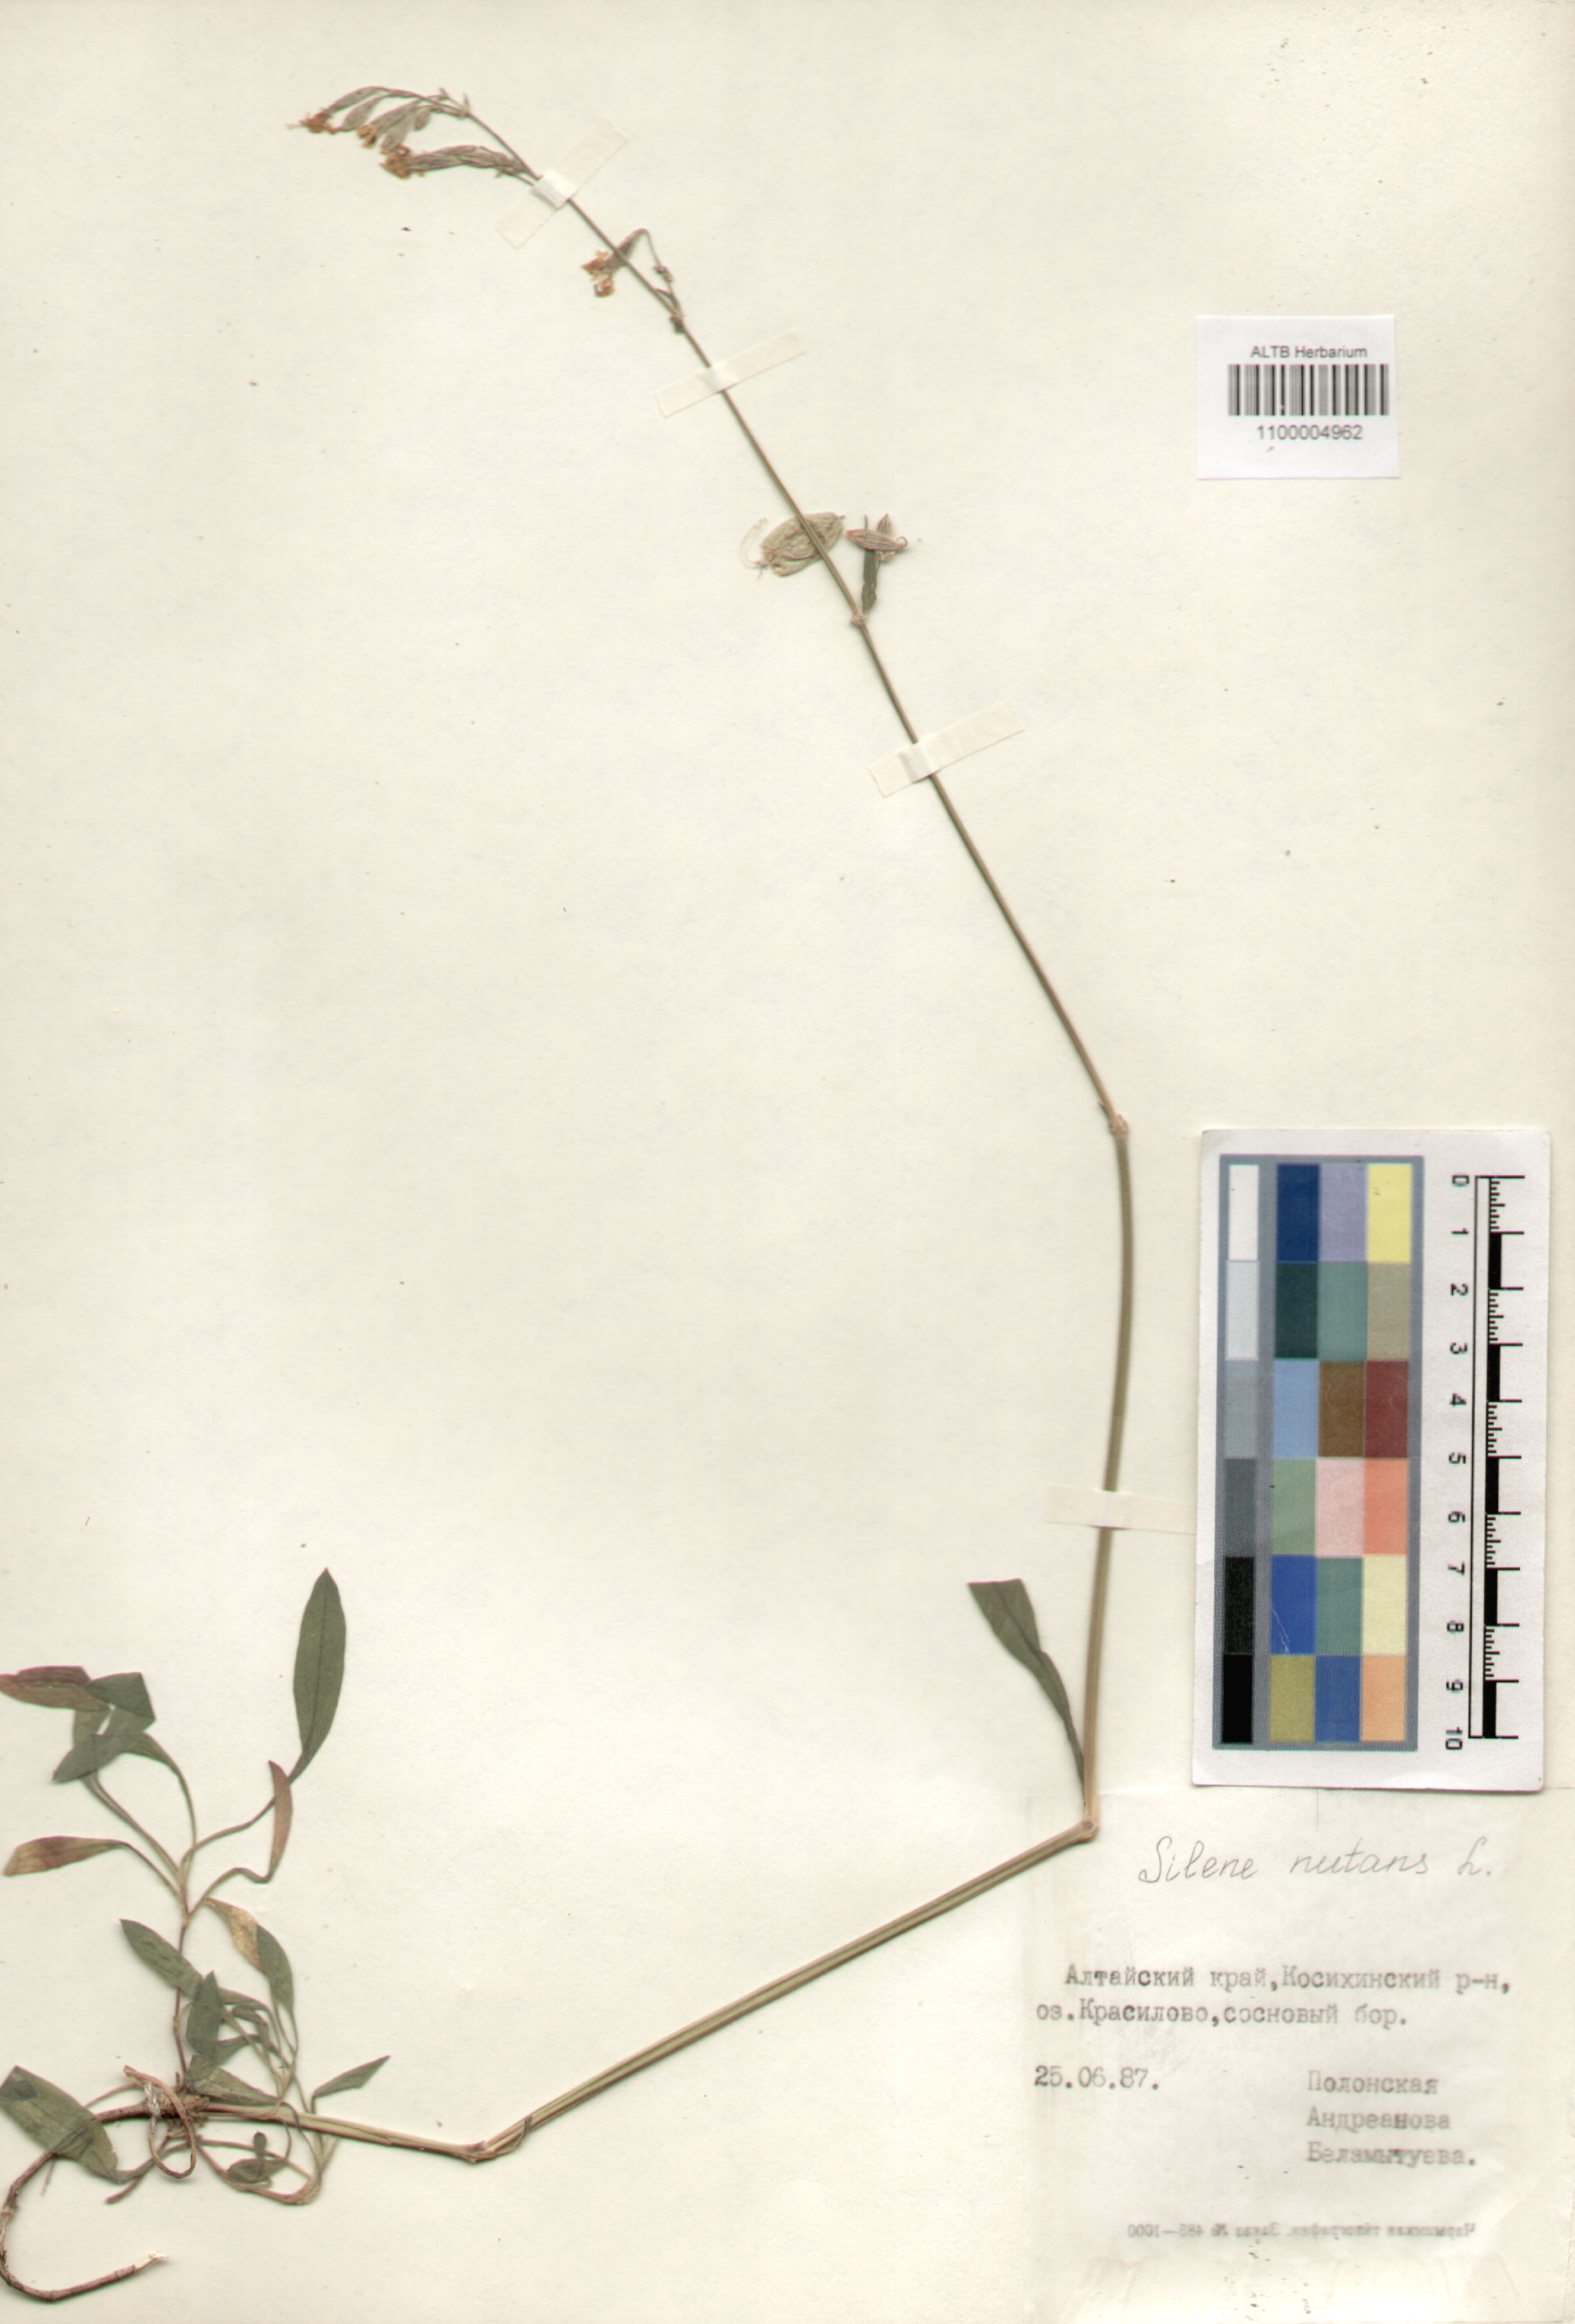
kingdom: Plantae
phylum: Tracheophyta
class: Magnoliopsida
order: Caryophyllales
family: Caryophyllaceae
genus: Silene
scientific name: Silene nutans
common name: Nottingham catchfly
